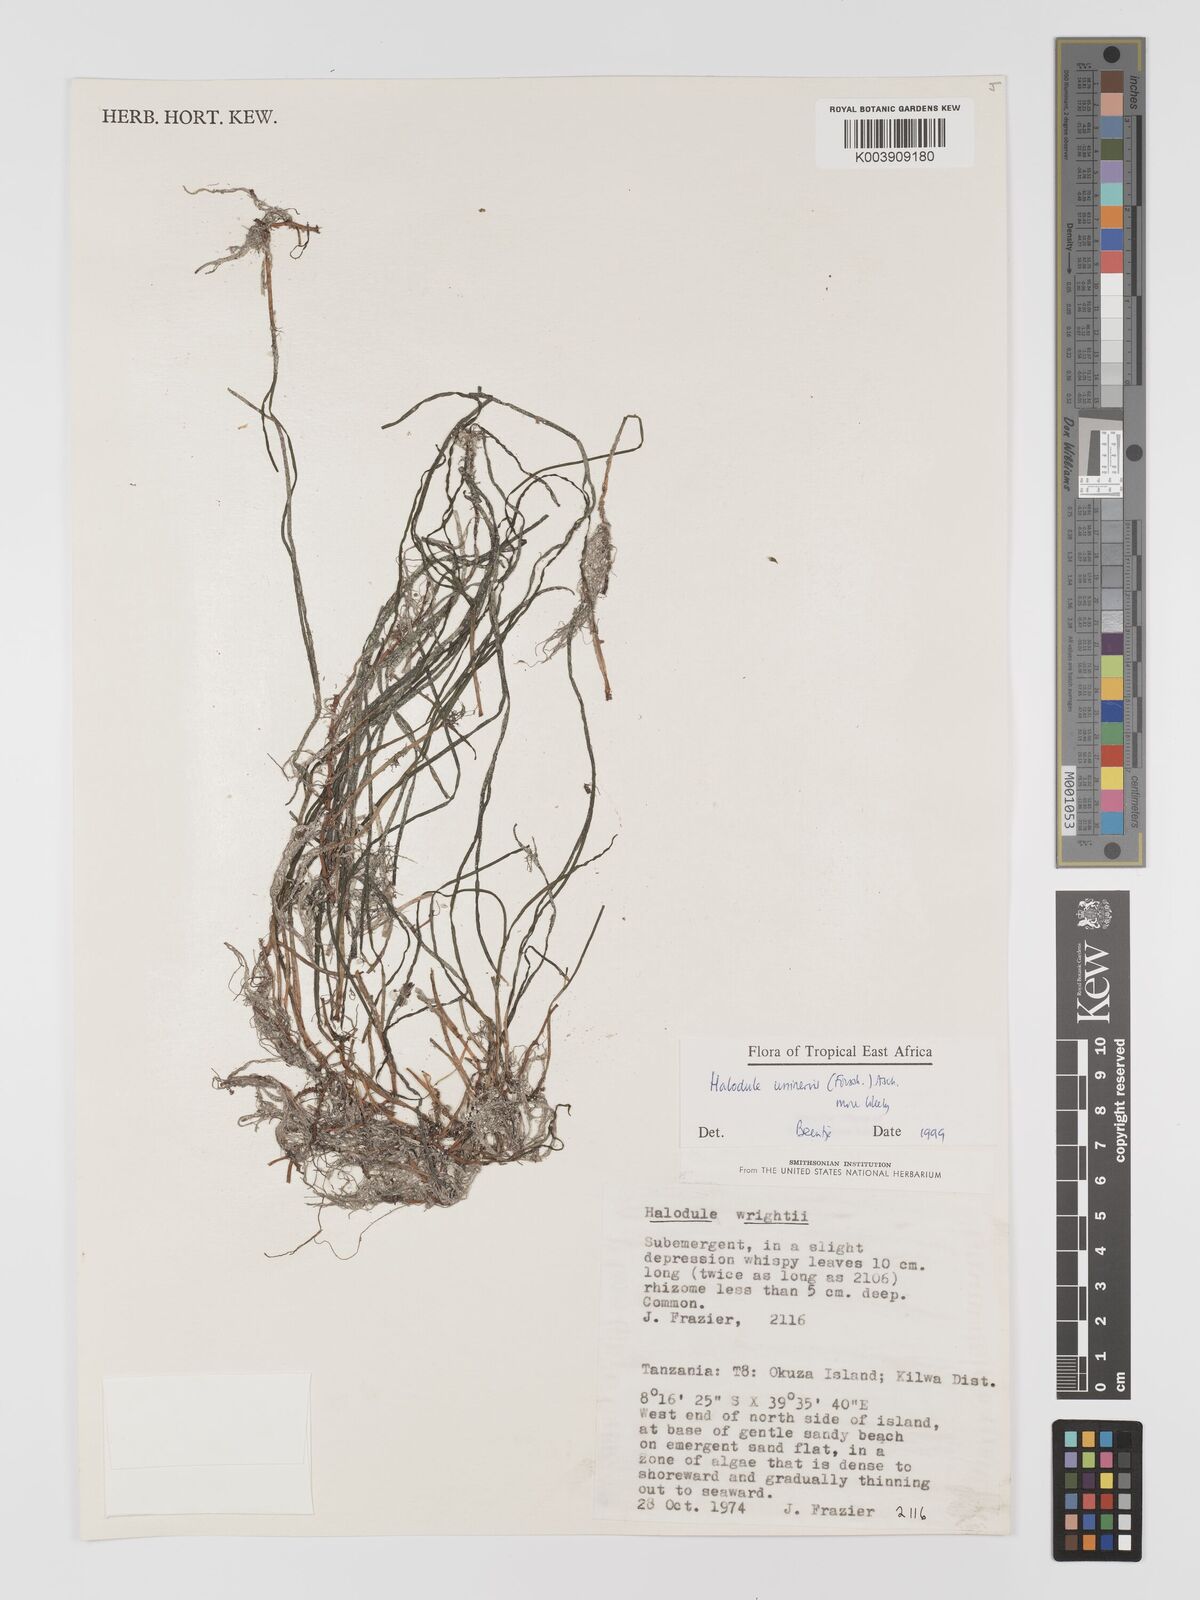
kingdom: Plantae
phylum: Tracheophyta
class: Liliopsida
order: Alismatales
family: Cymodoceaceae
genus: Halodule
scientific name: Halodule uninervis
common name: Narrowleaf seagrass
